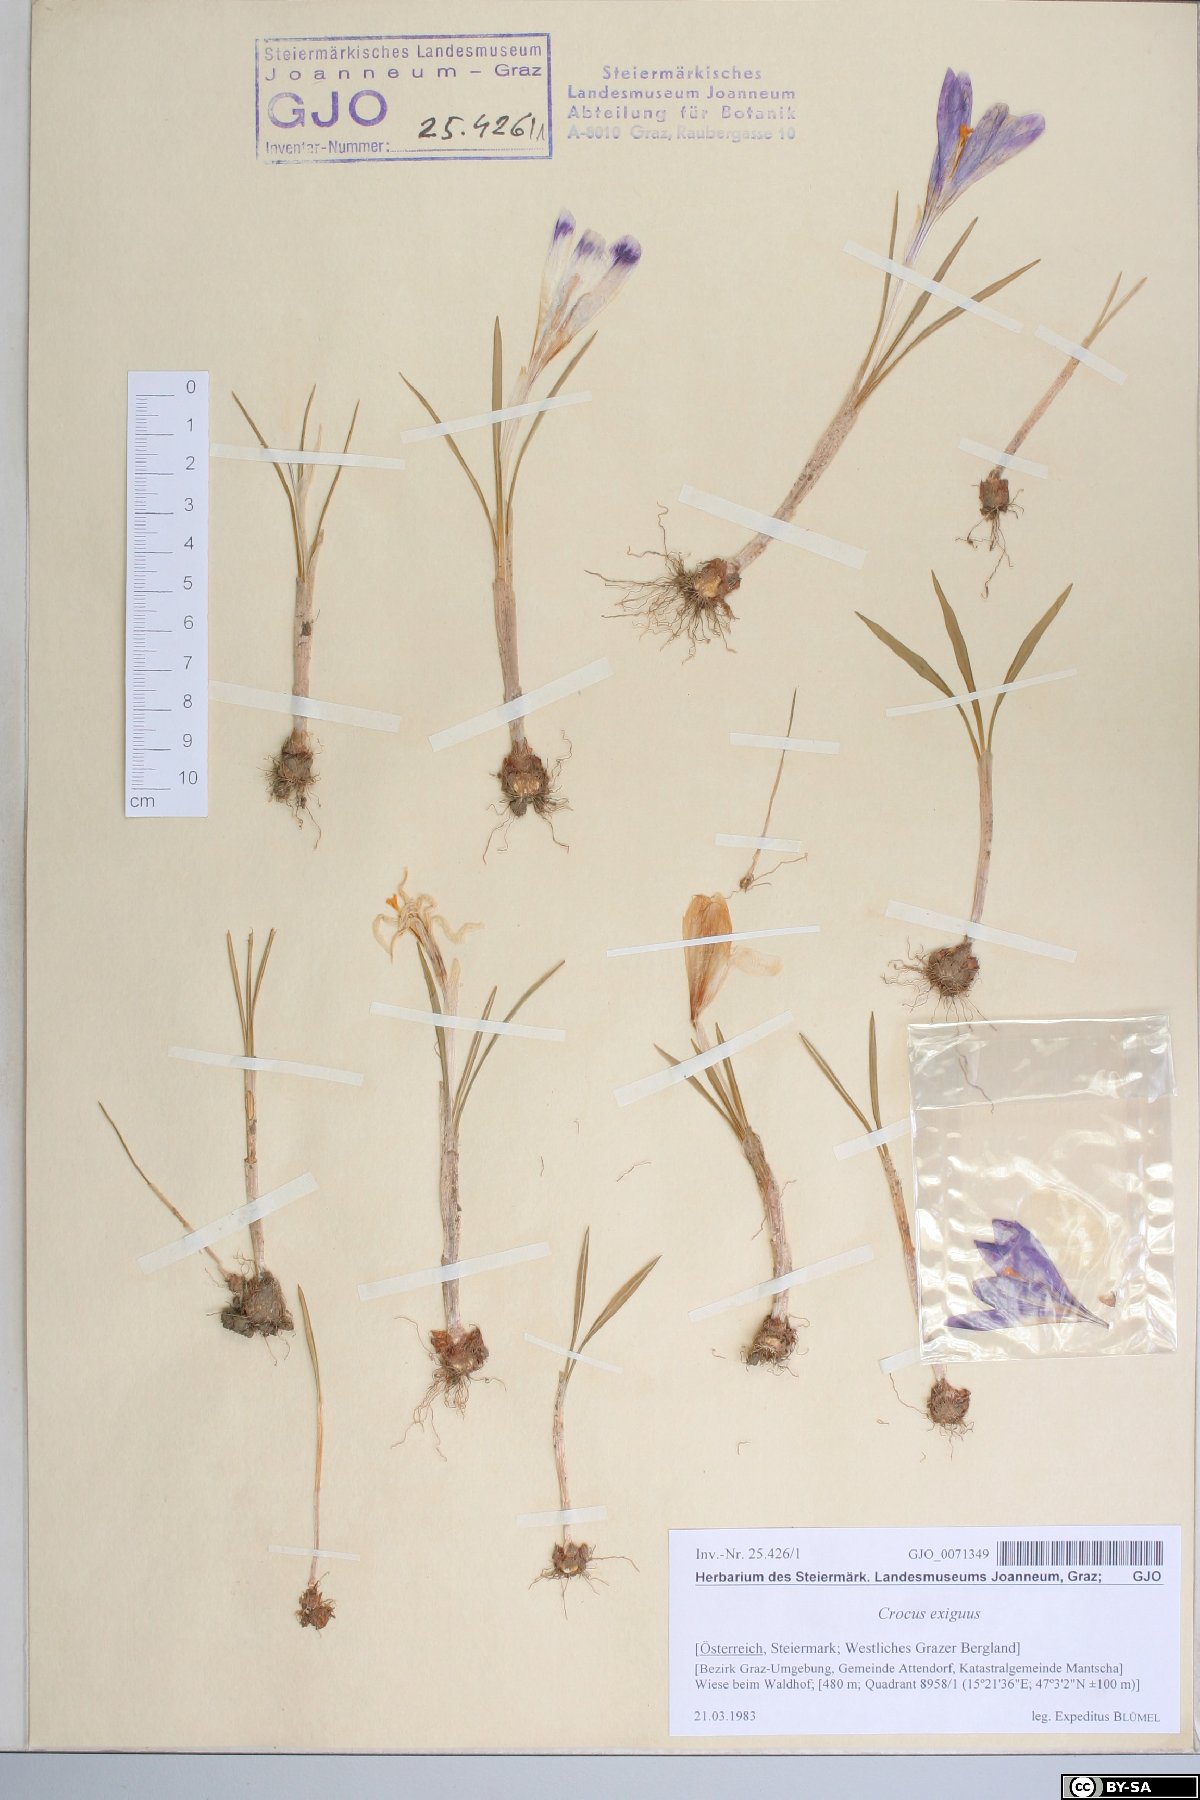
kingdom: Plantae
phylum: Tracheophyta
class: Liliopsida
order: Asparagales
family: Iridaceae
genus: Crocus
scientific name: Crocus heuffelianus
